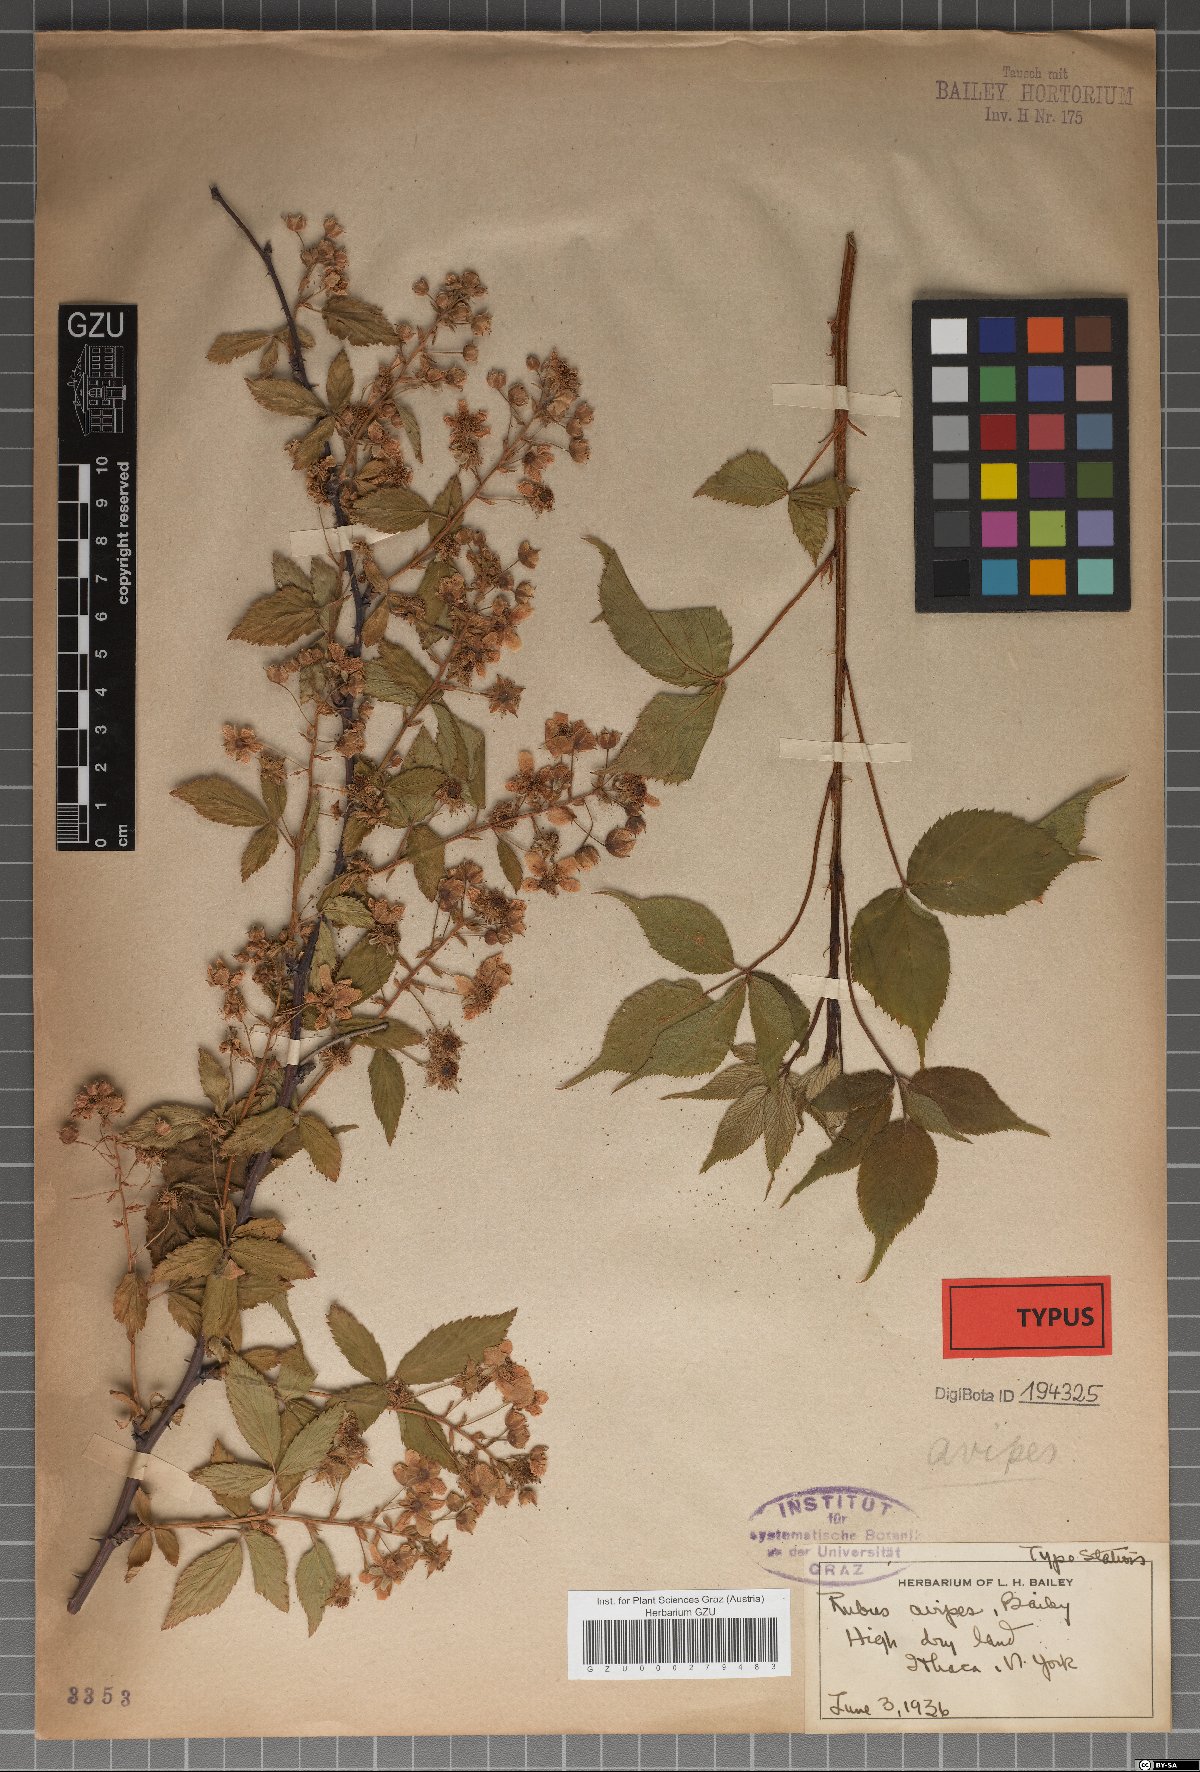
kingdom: Plantae
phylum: Tracheophyta
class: Magnoliopsida
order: Rosales
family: Rosaceae
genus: Rubus
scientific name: Rubus floricomus
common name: Manyflower blackberry
